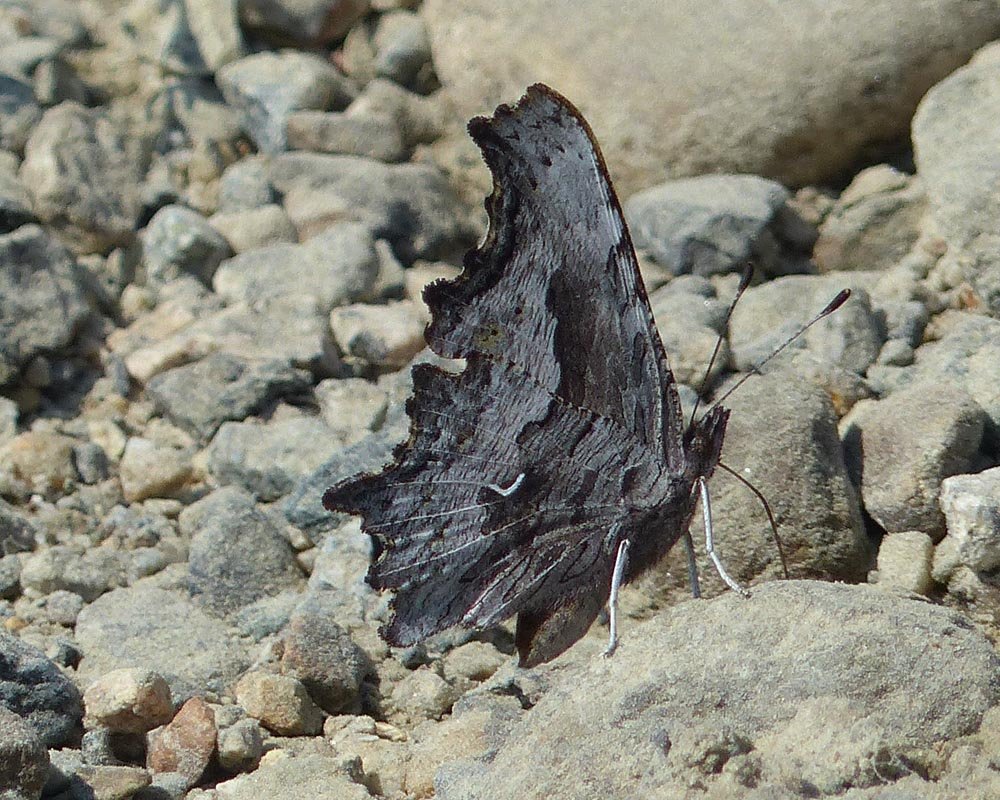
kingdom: Animalia
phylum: Arthropoda
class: Insecta
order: Lepidoptera
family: Nymphalidae
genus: Polygonia
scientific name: Polygonia gracilis
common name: Hoary Comma
